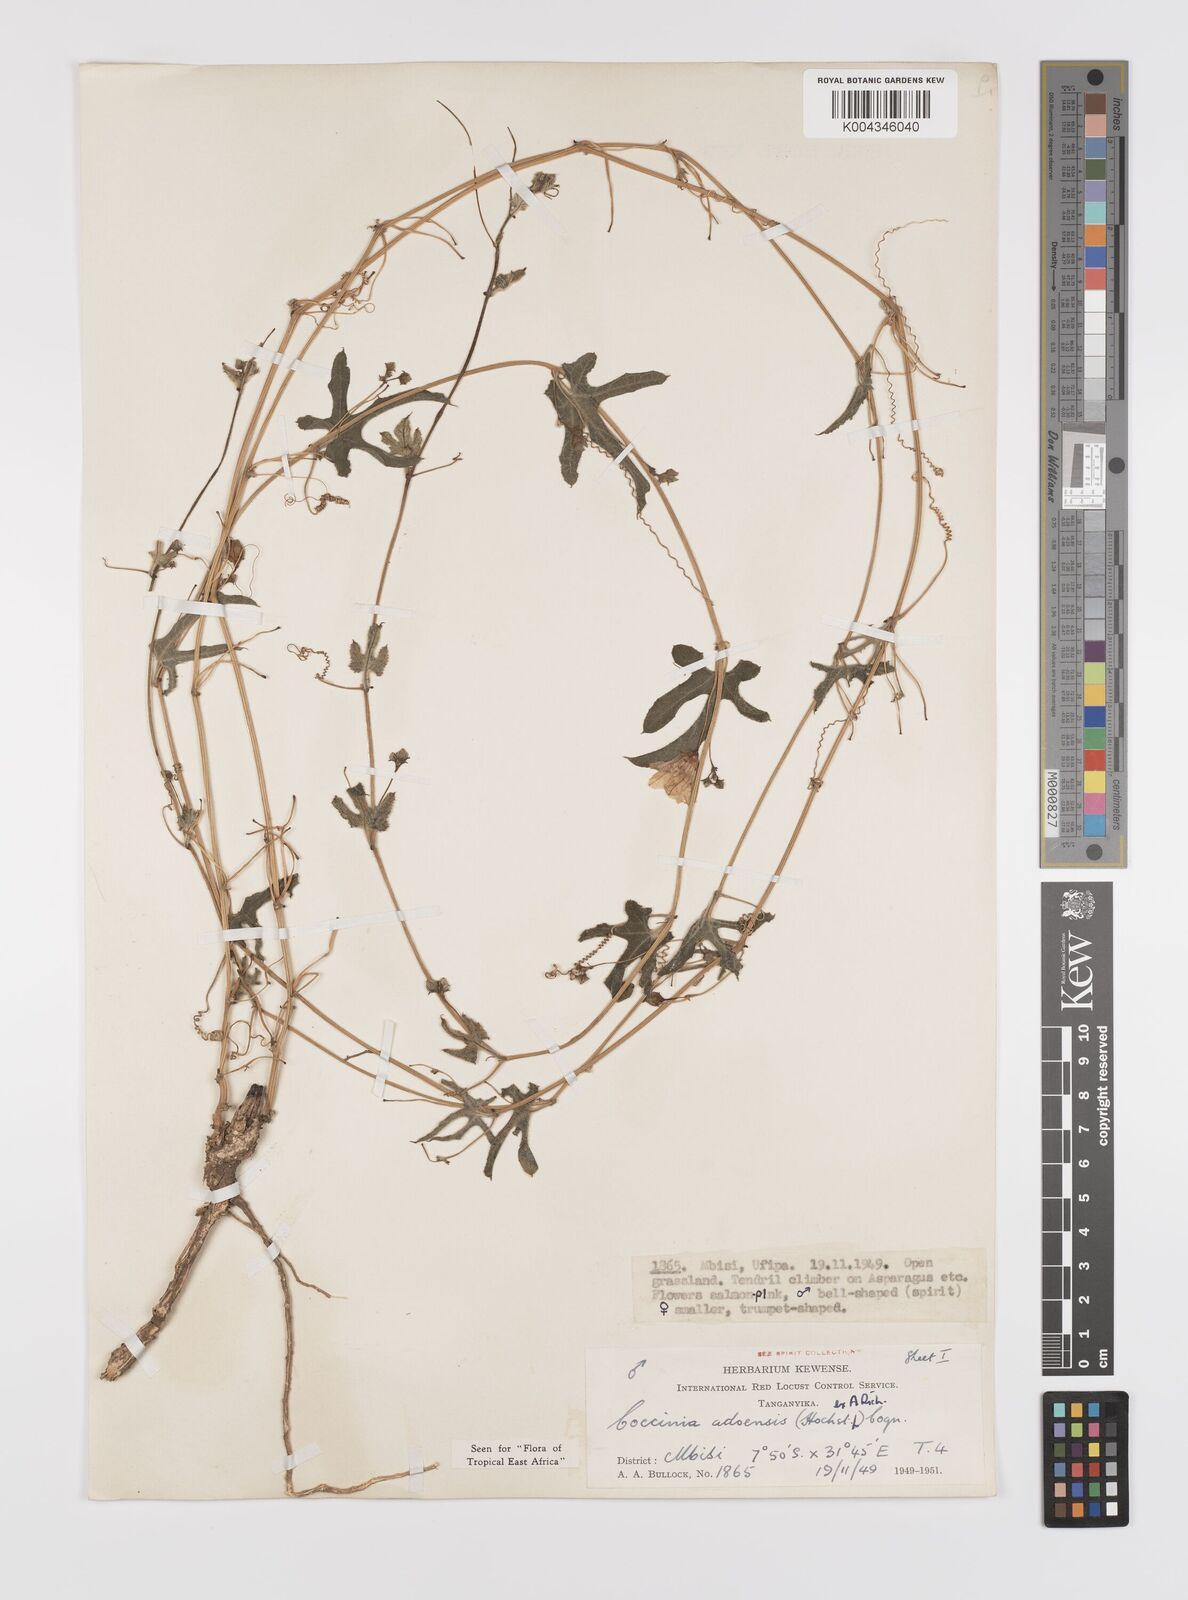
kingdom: Plantae
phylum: Tracheophyta
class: Magnoliopsida
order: Cucurbitales
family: Cucurbitaceae
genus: Coccinia
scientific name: Coccinia adoensis
